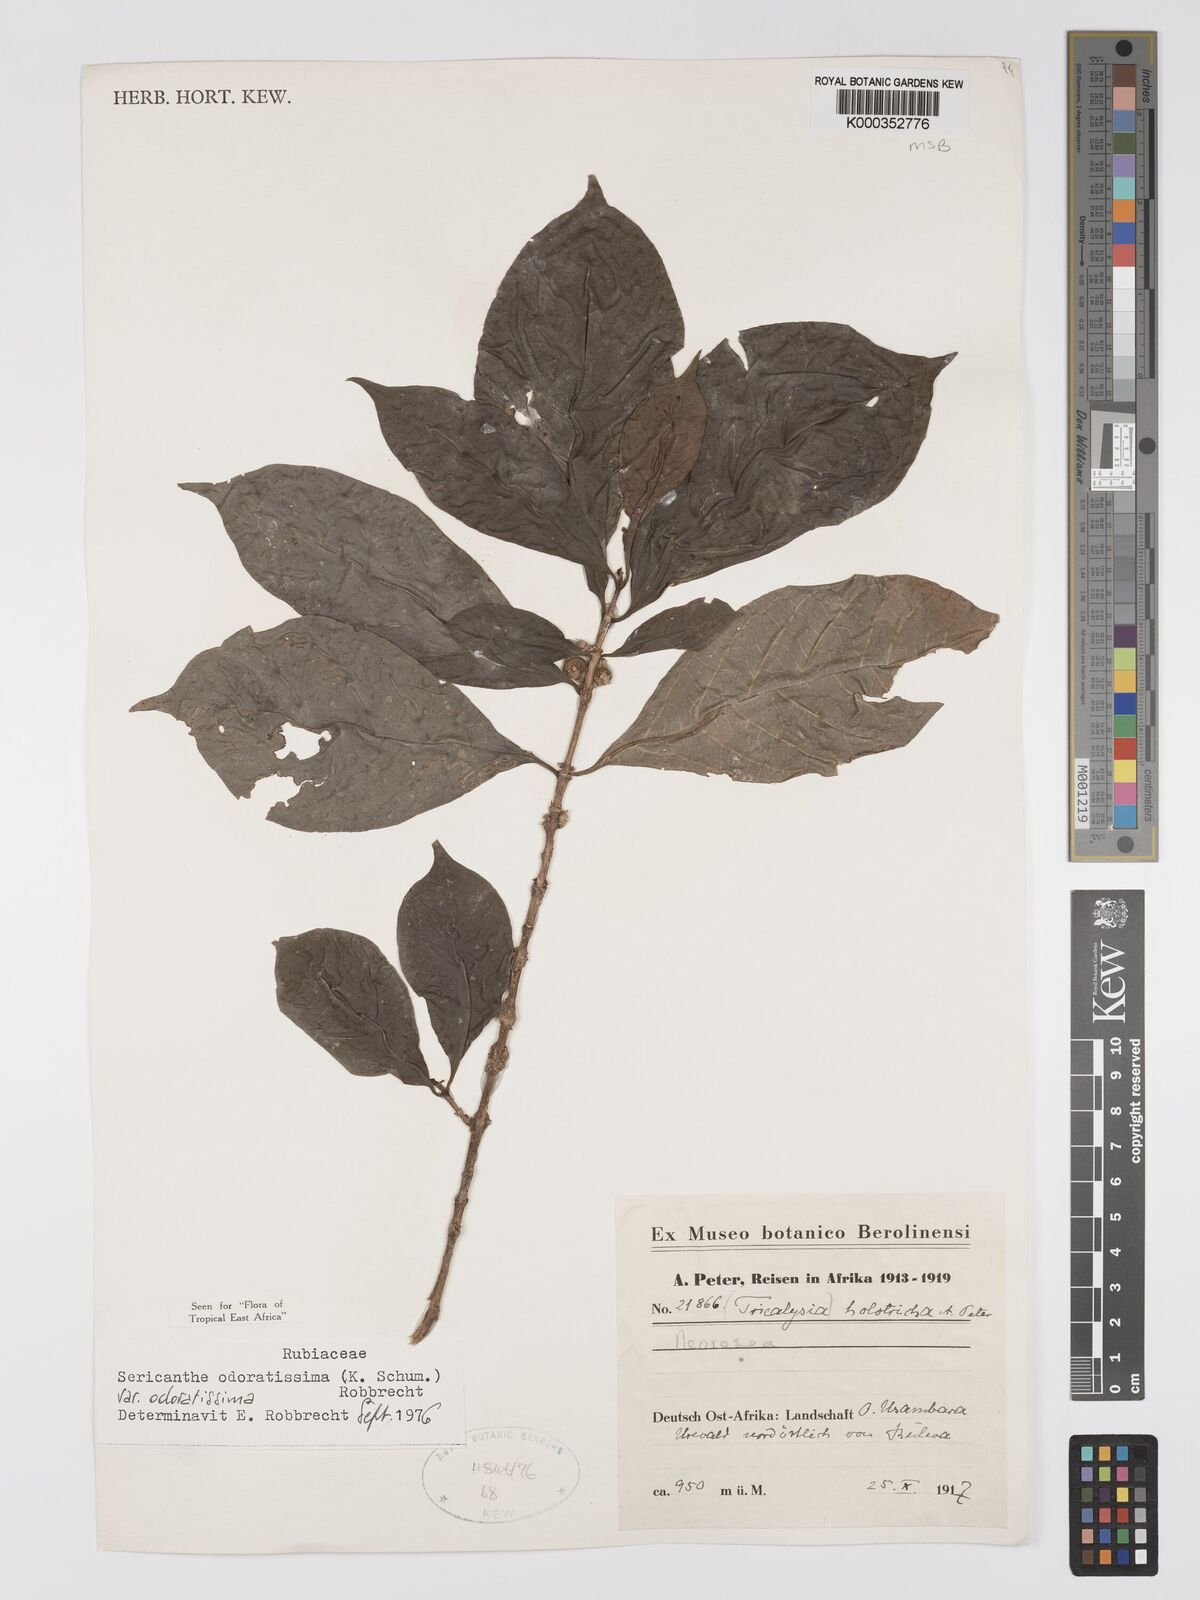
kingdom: Plantae
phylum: Tracheophyta
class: Magnoliopsida
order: Gentianales
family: Rubiaceae
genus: Sericanthe
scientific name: Sericanthe odoratissima
